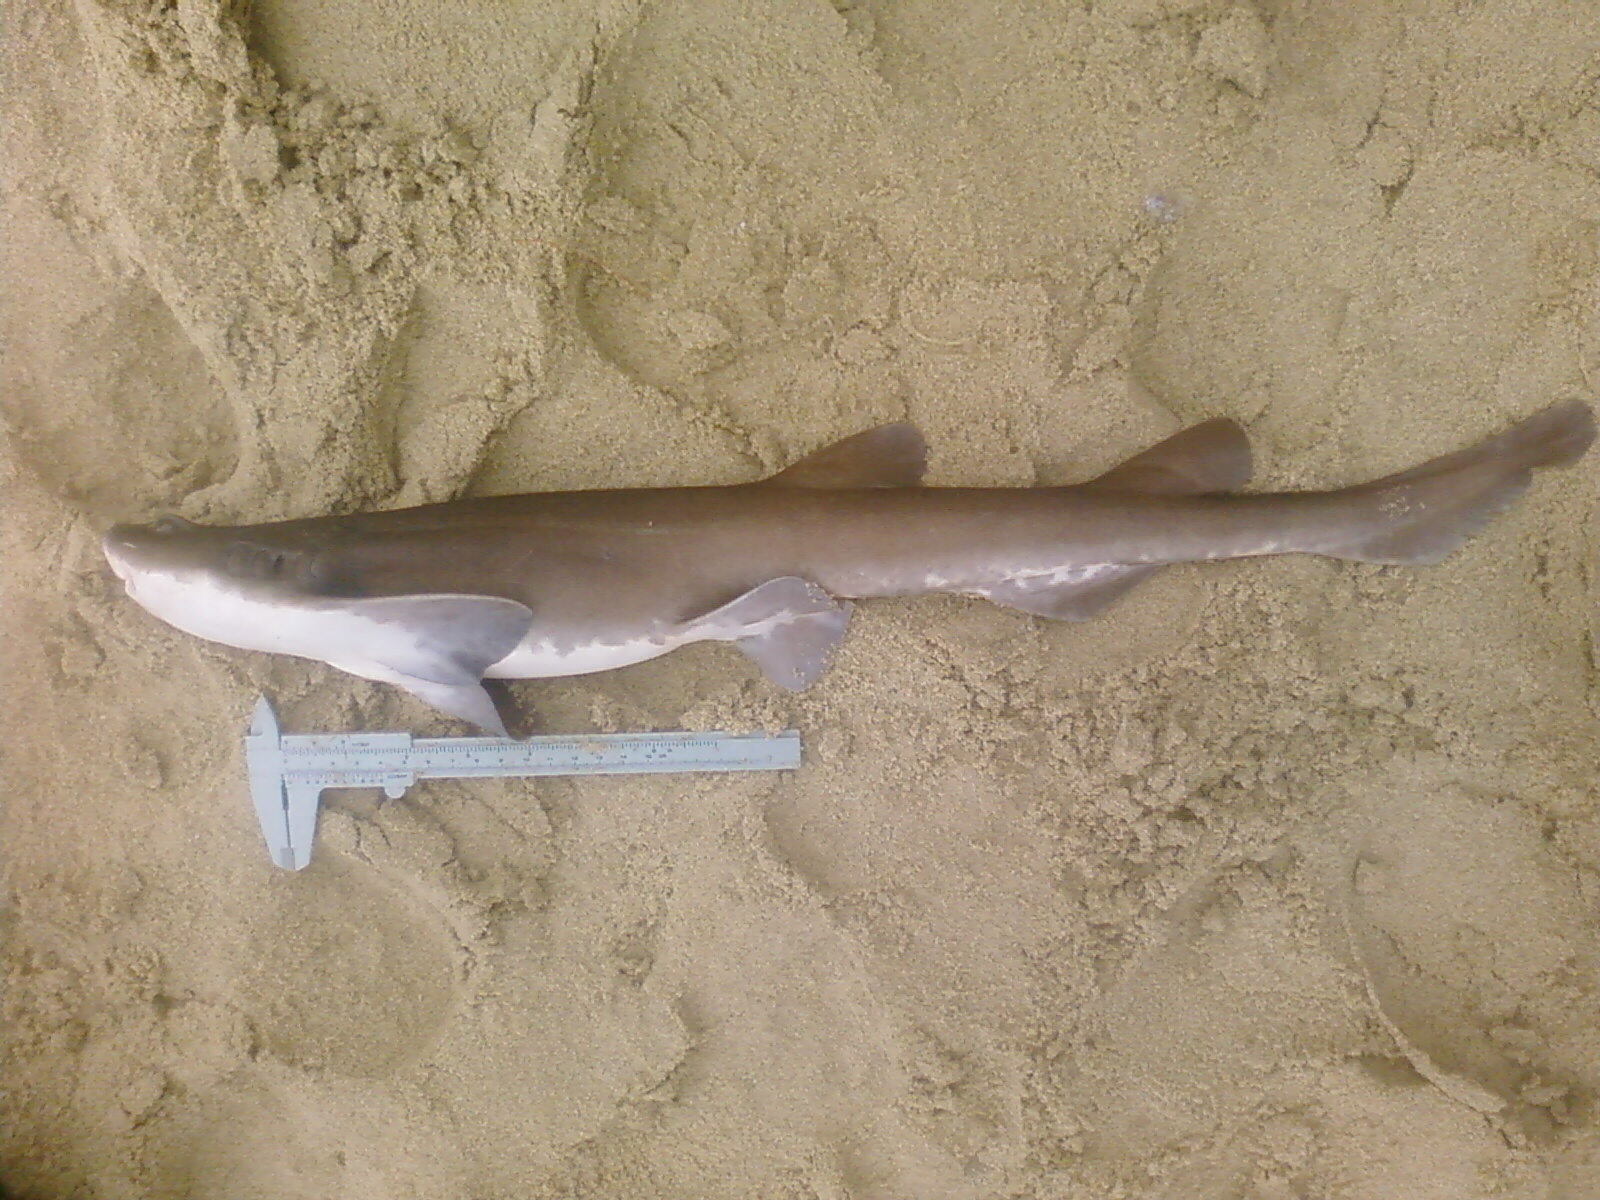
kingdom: Animalia
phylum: Chordata
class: Elasmobranchii
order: Carcharhiniformes
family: Scyliorhinidae
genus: Haploblepharus
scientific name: Haploblepharus fuscus
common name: Brown shyshark
